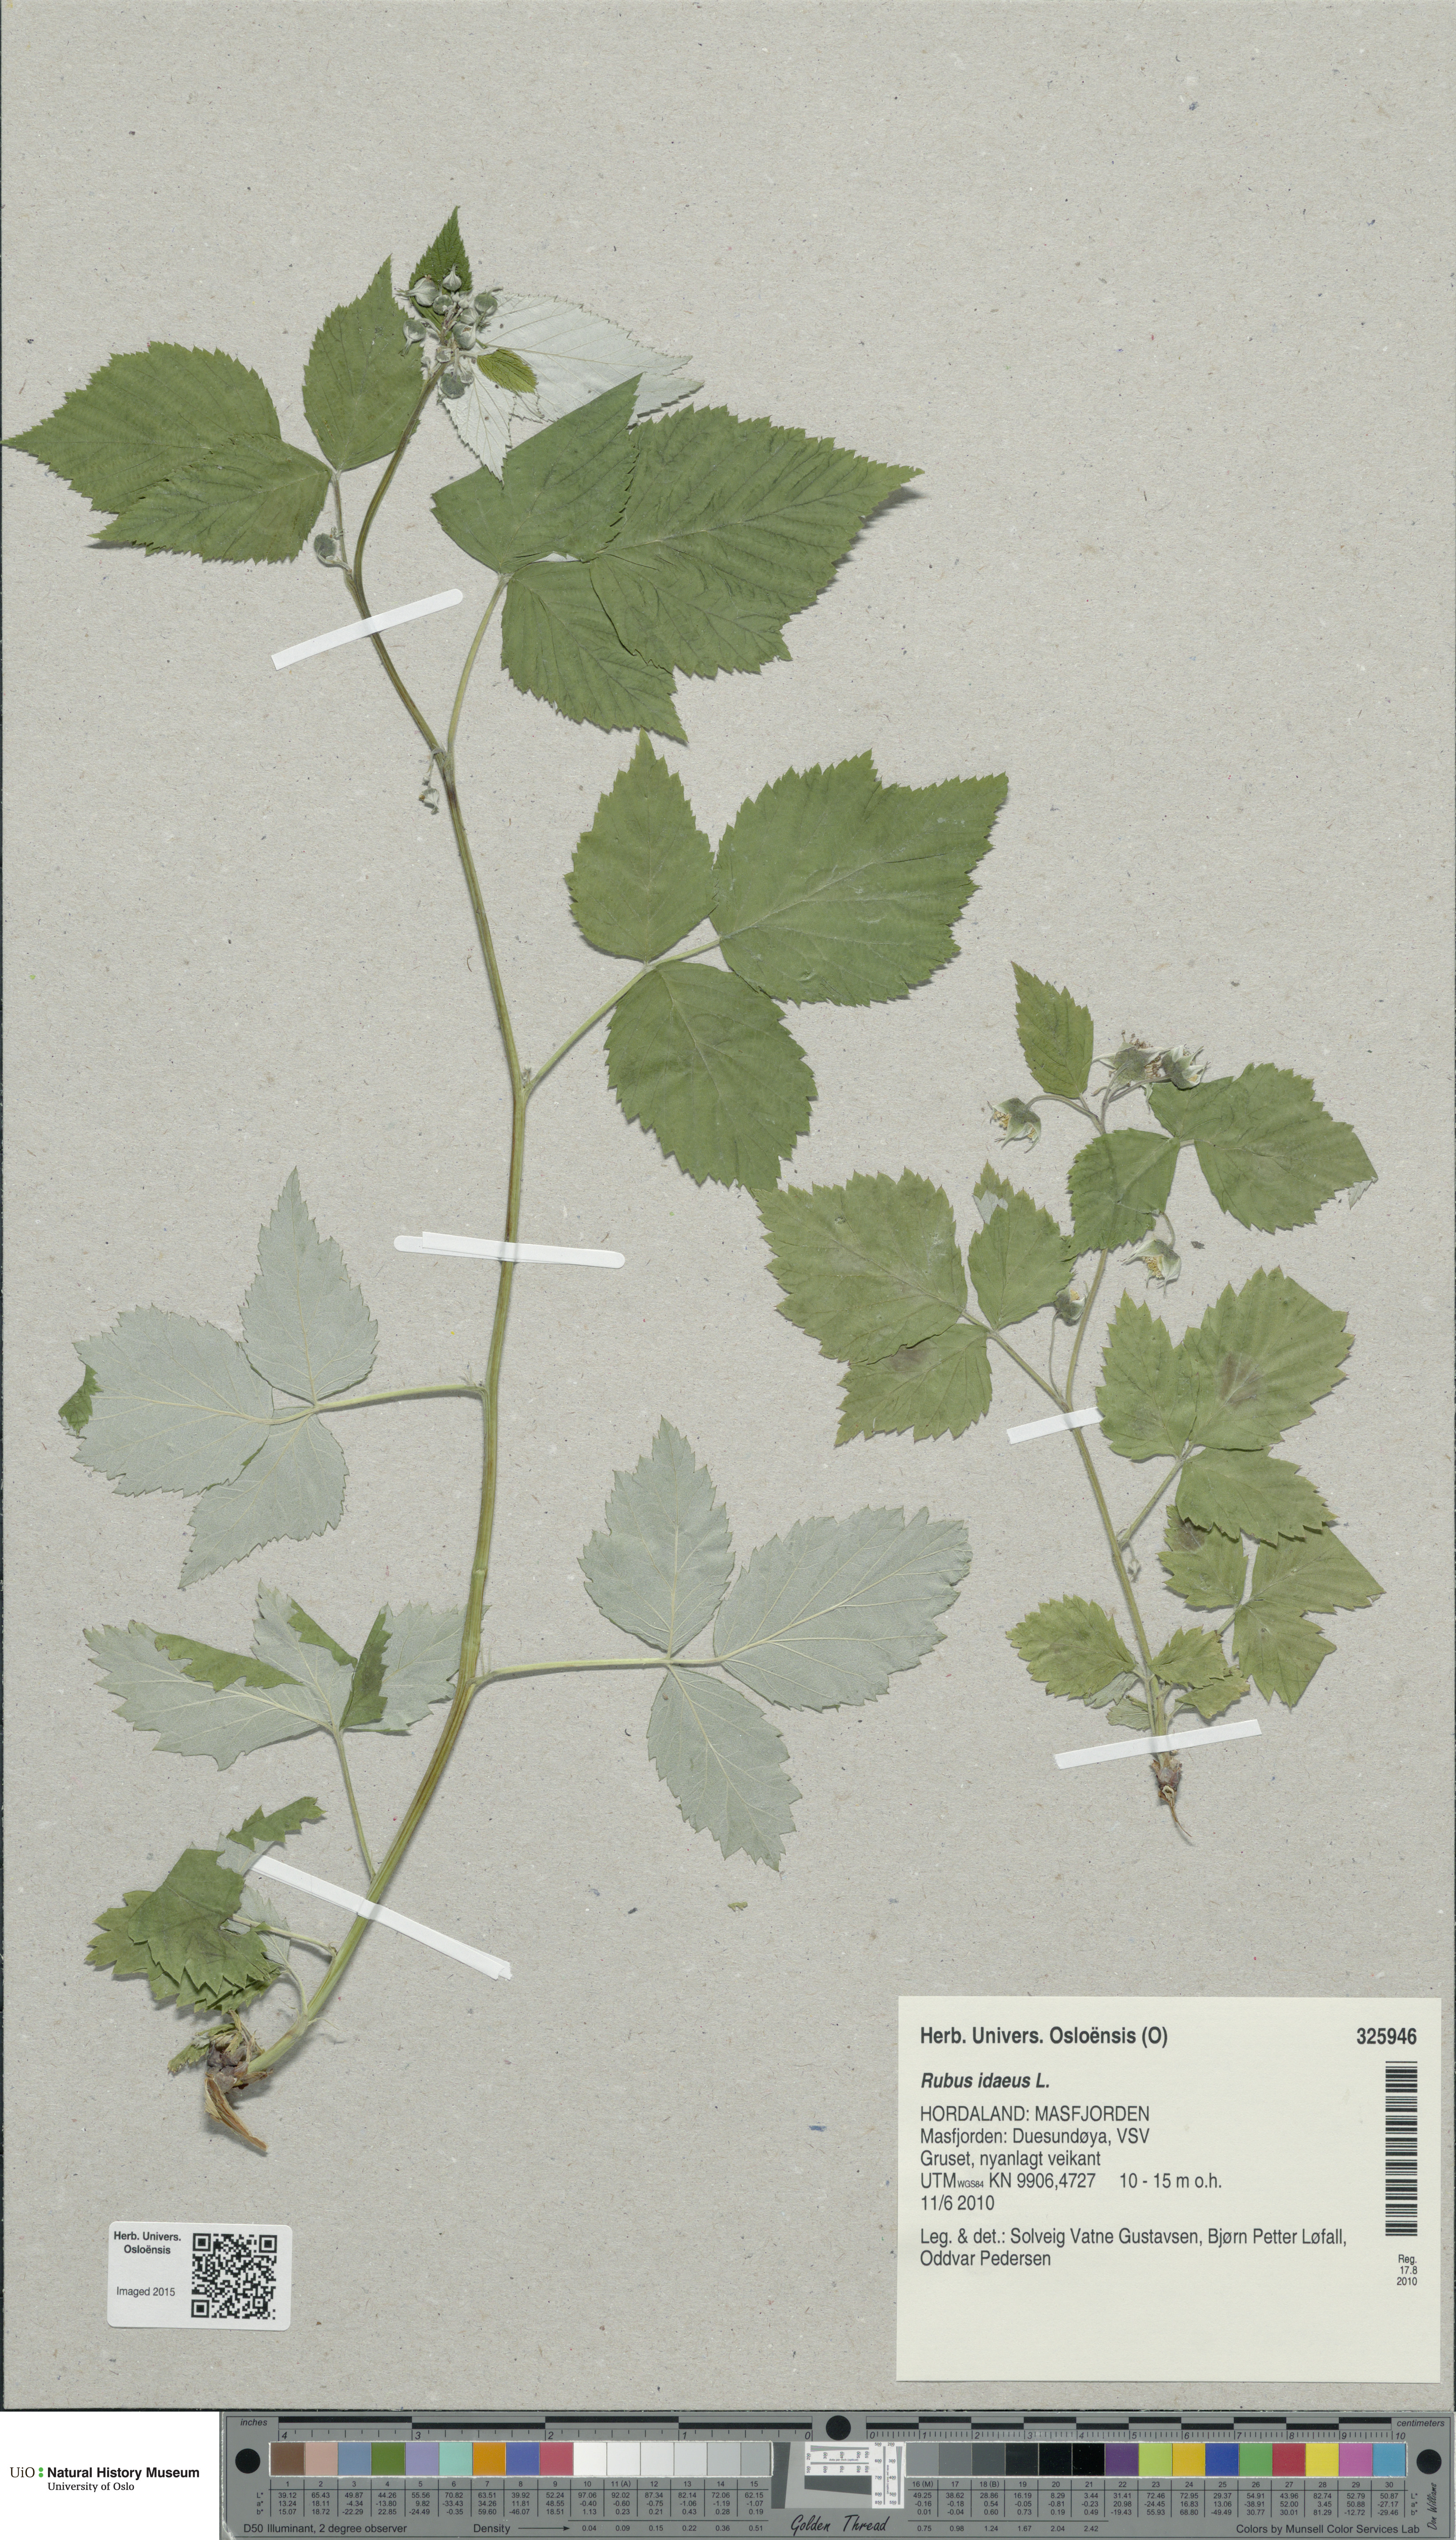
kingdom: Plantae
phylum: Tracheophyta
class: Magnoliopsida
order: Rosales
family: Rosaceae
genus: Rubus
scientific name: Rubus idaeus
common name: Raspberry
